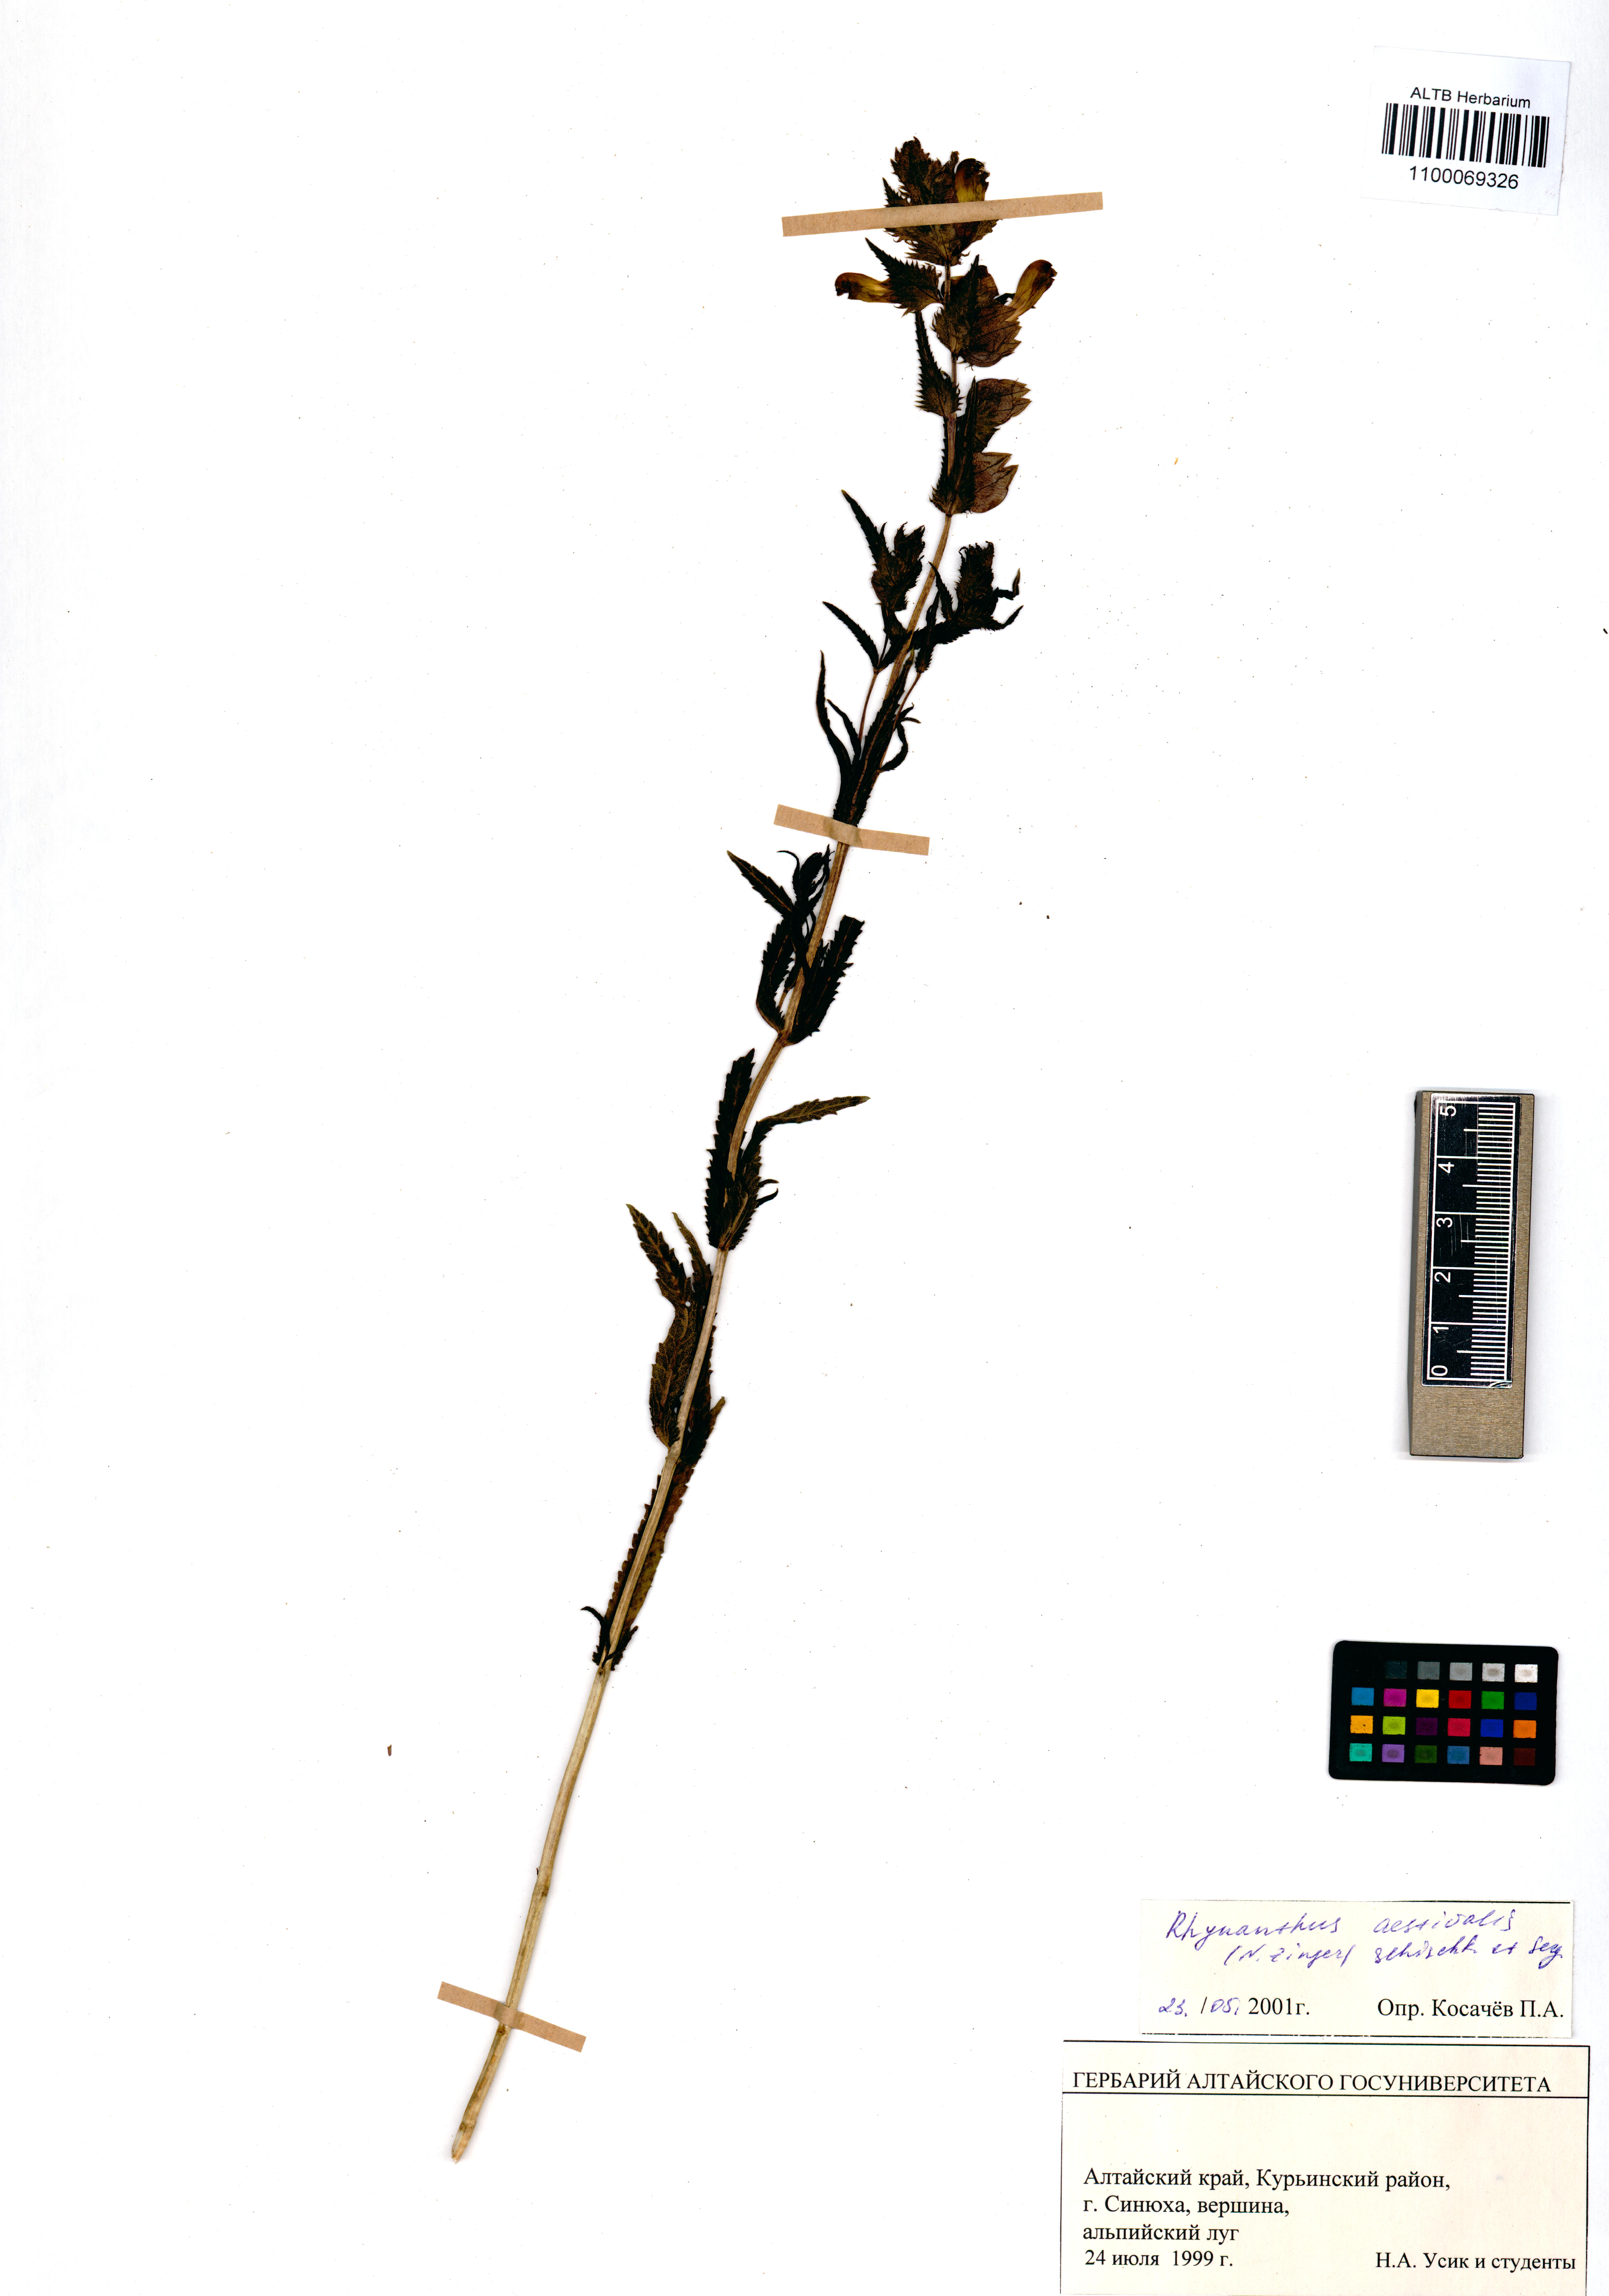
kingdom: Plantae
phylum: Tracheophyta
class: Magnoliopsida
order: Lamiales
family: Orobanchaceae
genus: Rhinanthus
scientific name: Rhinanthus serotinus
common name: Late-flowering yellow rattle
